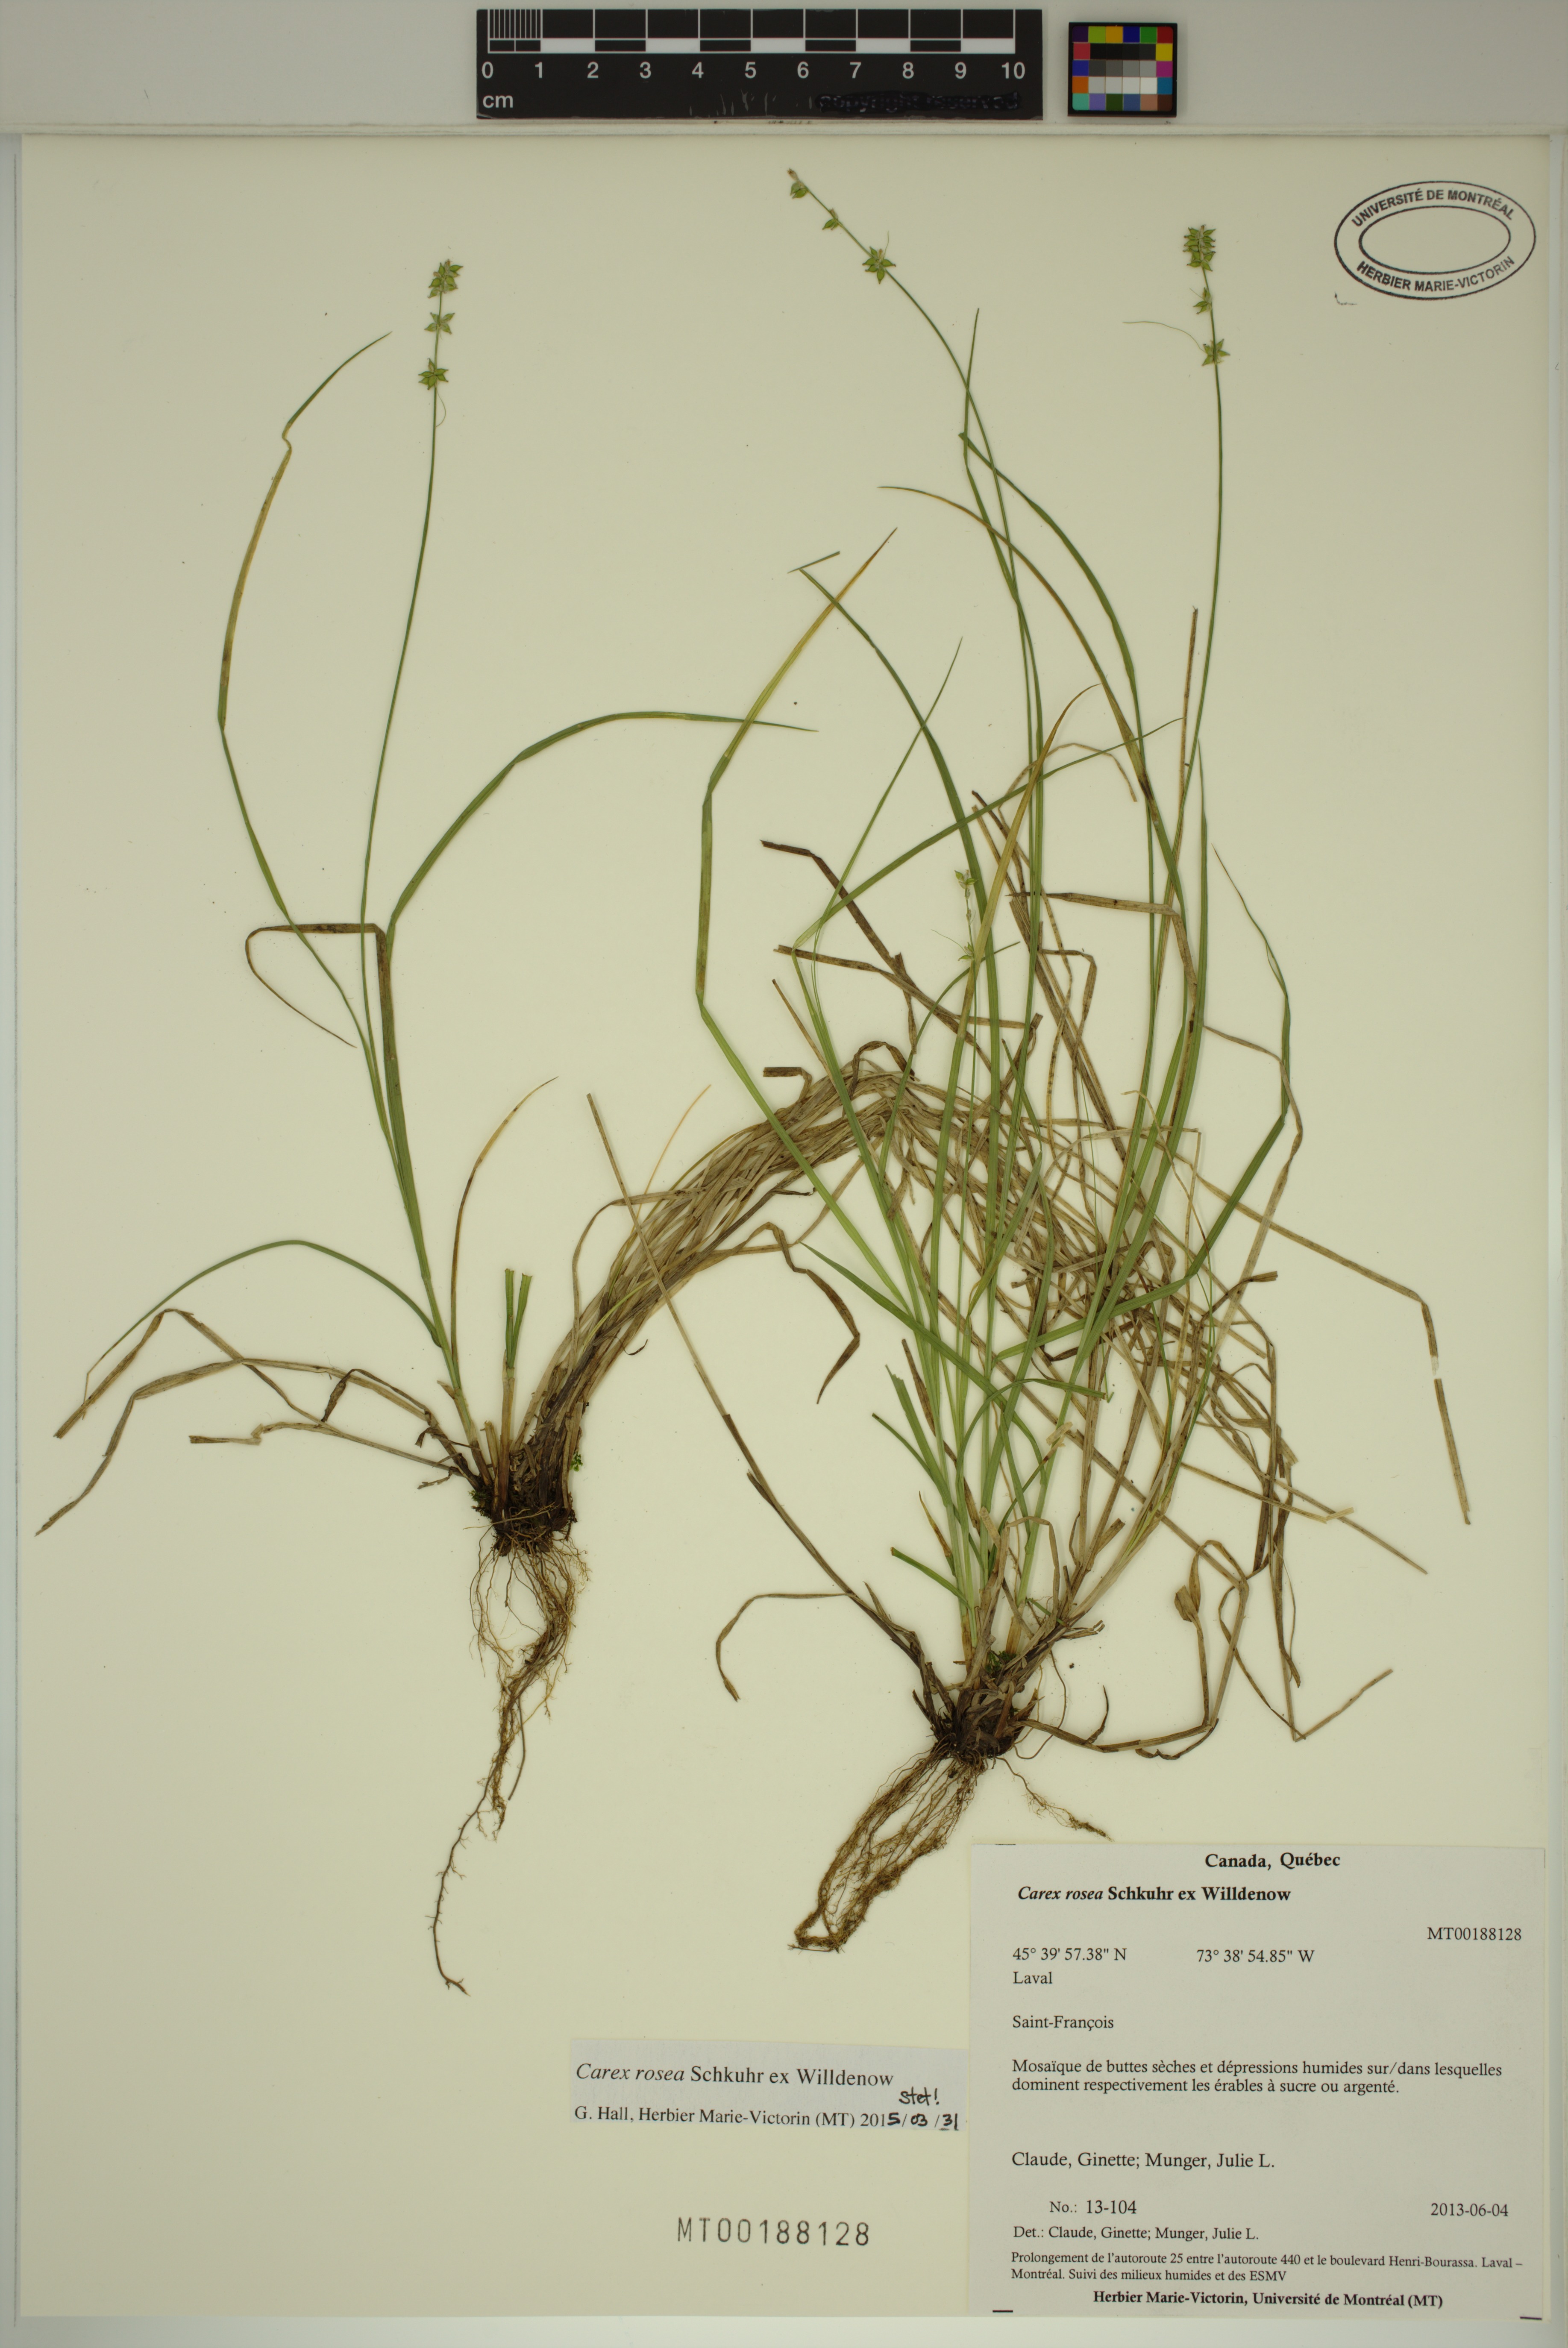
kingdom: Plantae
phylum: Tracheophyta
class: Liliopsida
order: Poales
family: Cyperaceae
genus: Carex
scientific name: Carex rosea
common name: Curly-styled wood sedge
